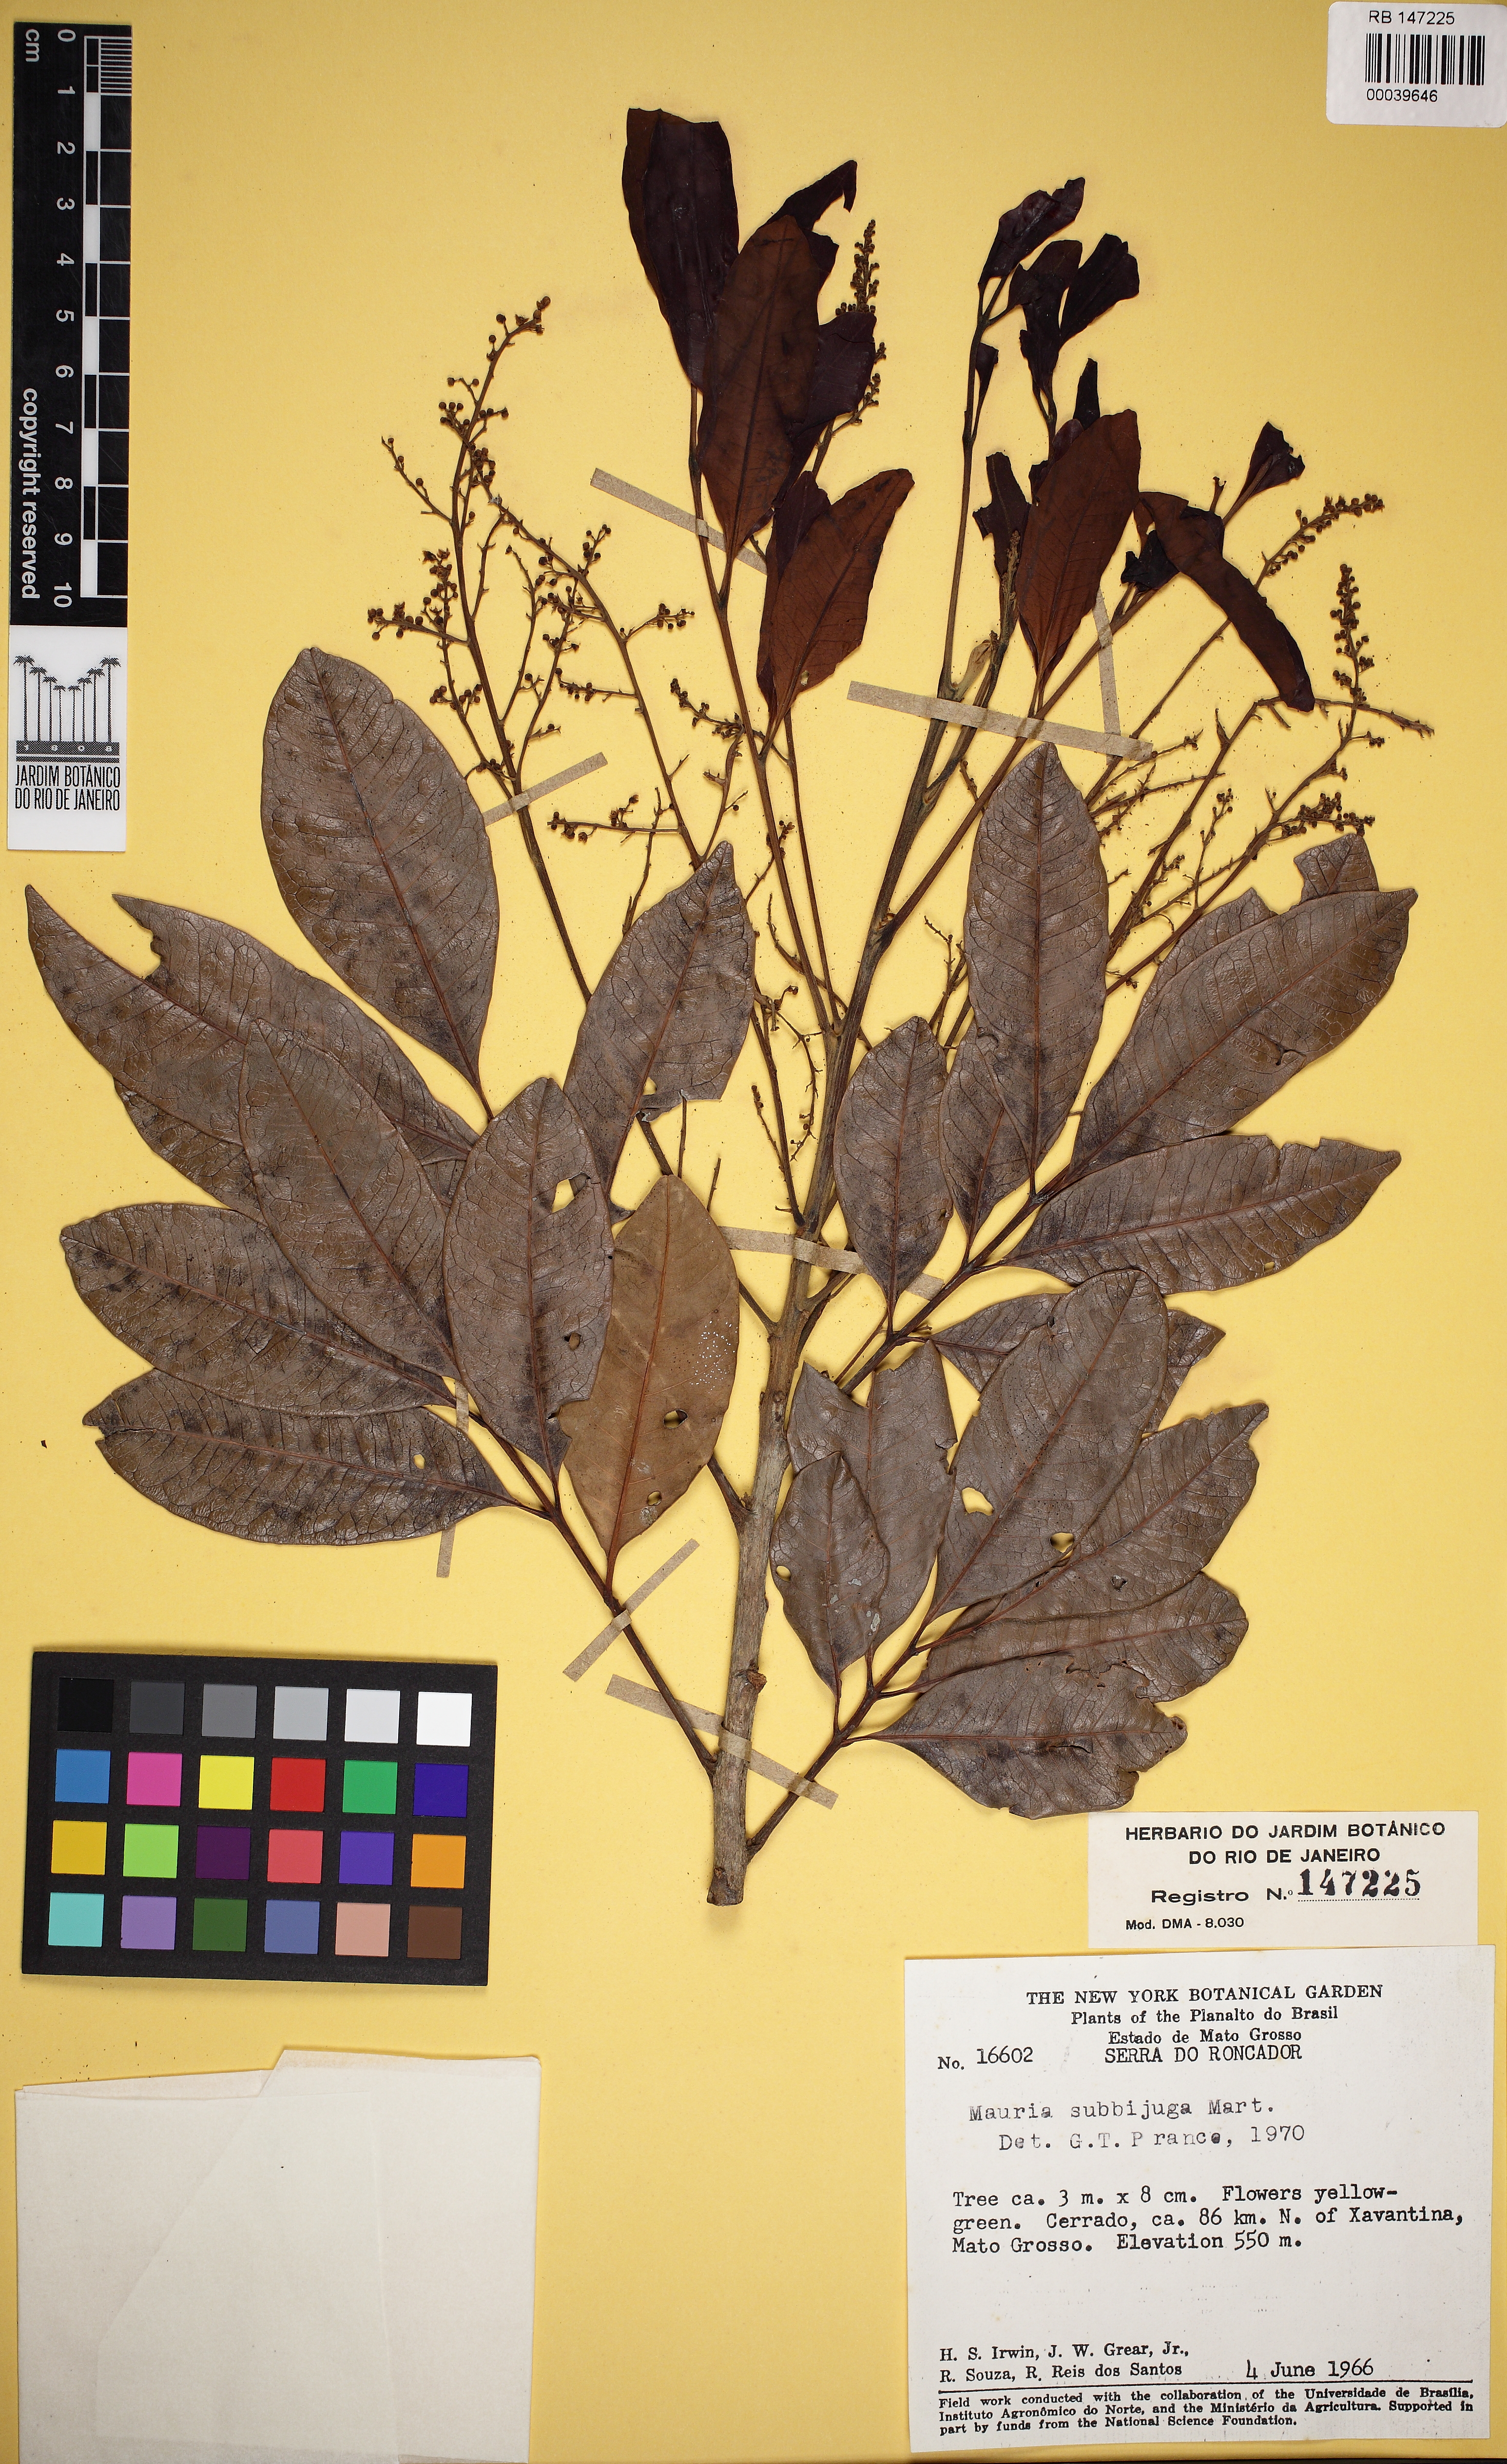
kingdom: Plantae
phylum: Tracheophyta
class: Magnoliopsida
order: Sapindales
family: Anacardiaceae
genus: Tapirira
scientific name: Tapirira guianensis
